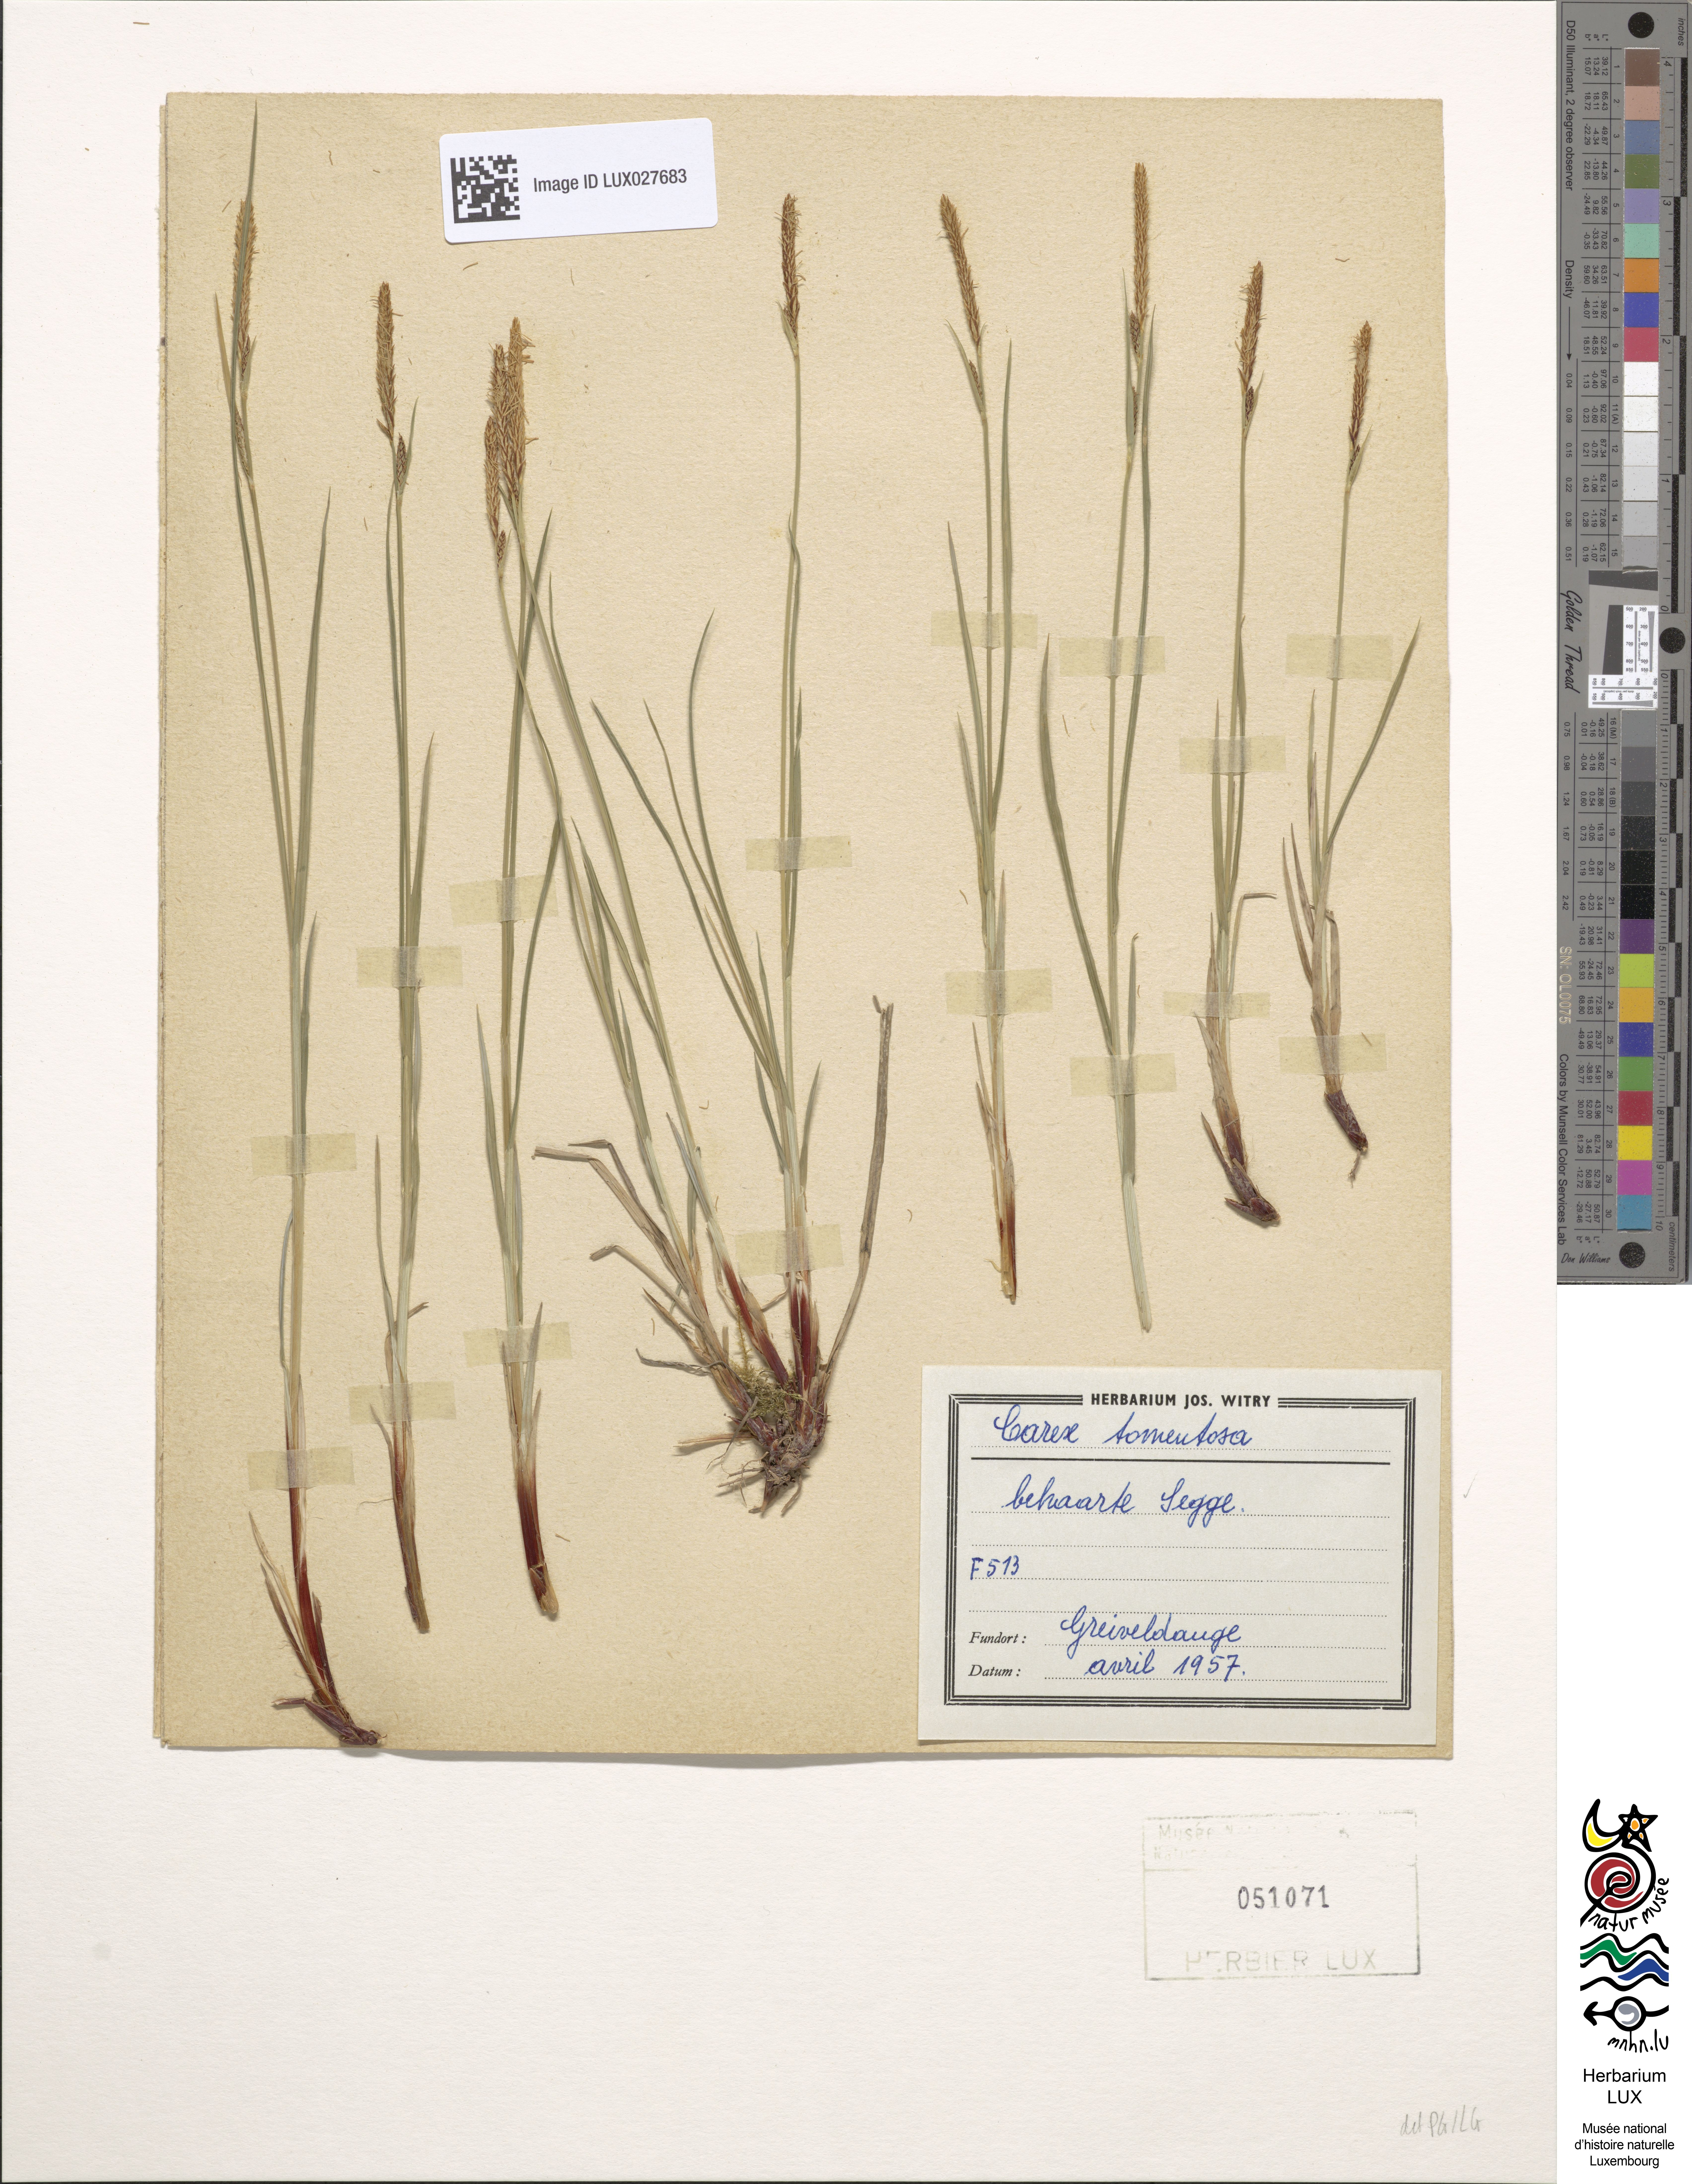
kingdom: Plantae
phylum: Tracheophyta
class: Liliopsida
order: Poales
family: Cyperaceae
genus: Carex
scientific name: Carex tomentosa
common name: Downy-fruited sedge
